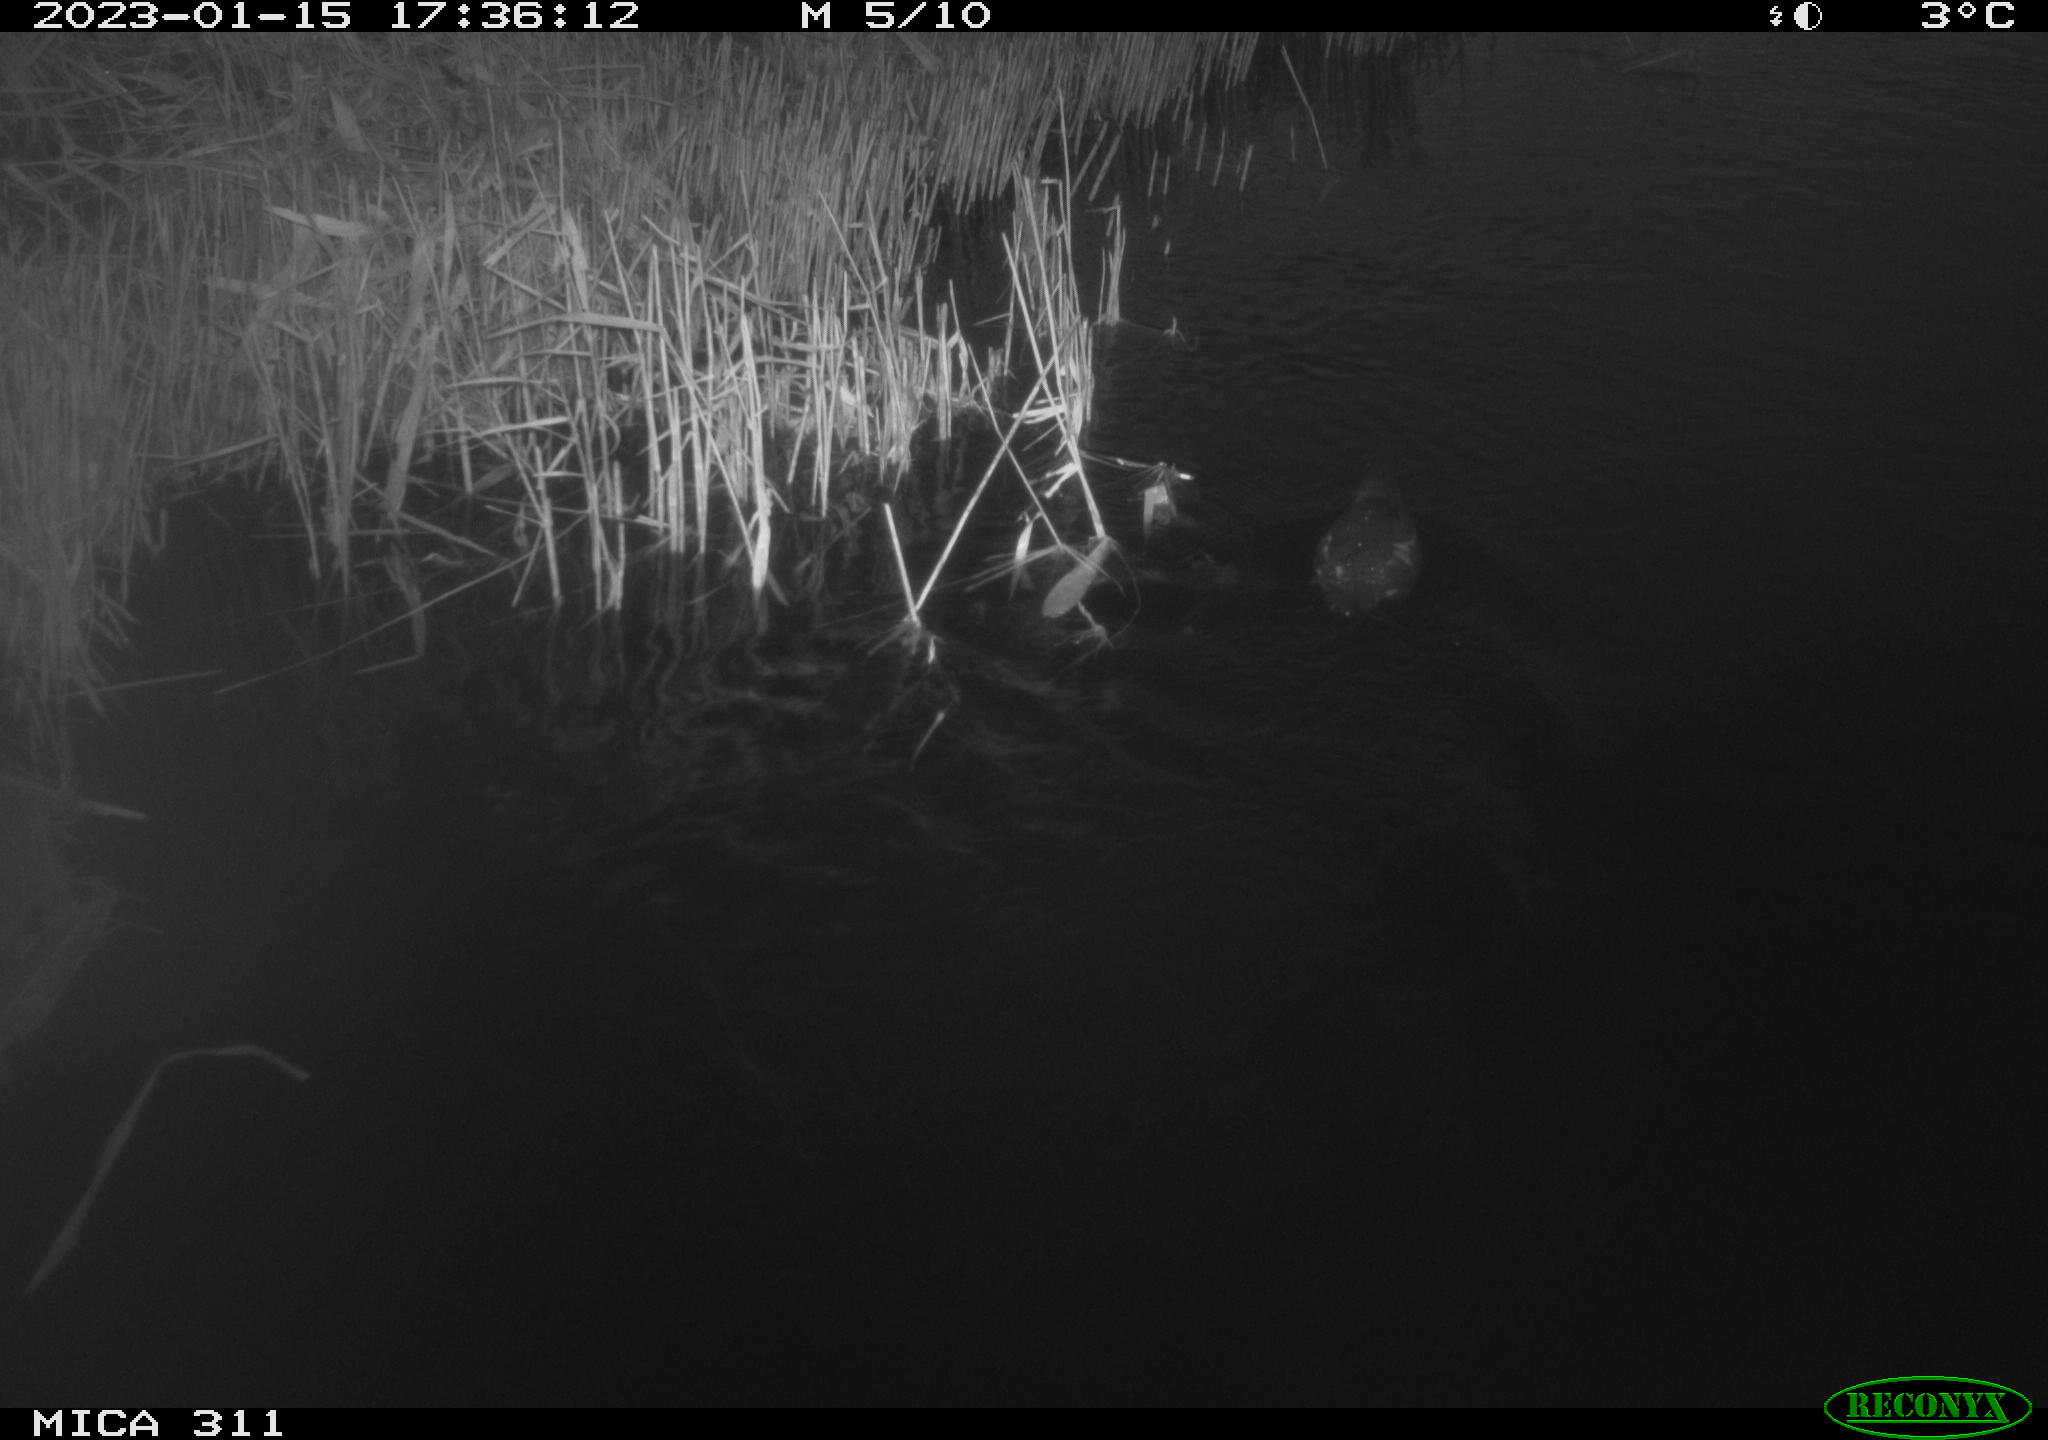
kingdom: Animalia
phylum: Chordata
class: Aves
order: Gruiformes
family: Rallidae
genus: Gallinula
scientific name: Gallinula chloropus
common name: Common moorhen
